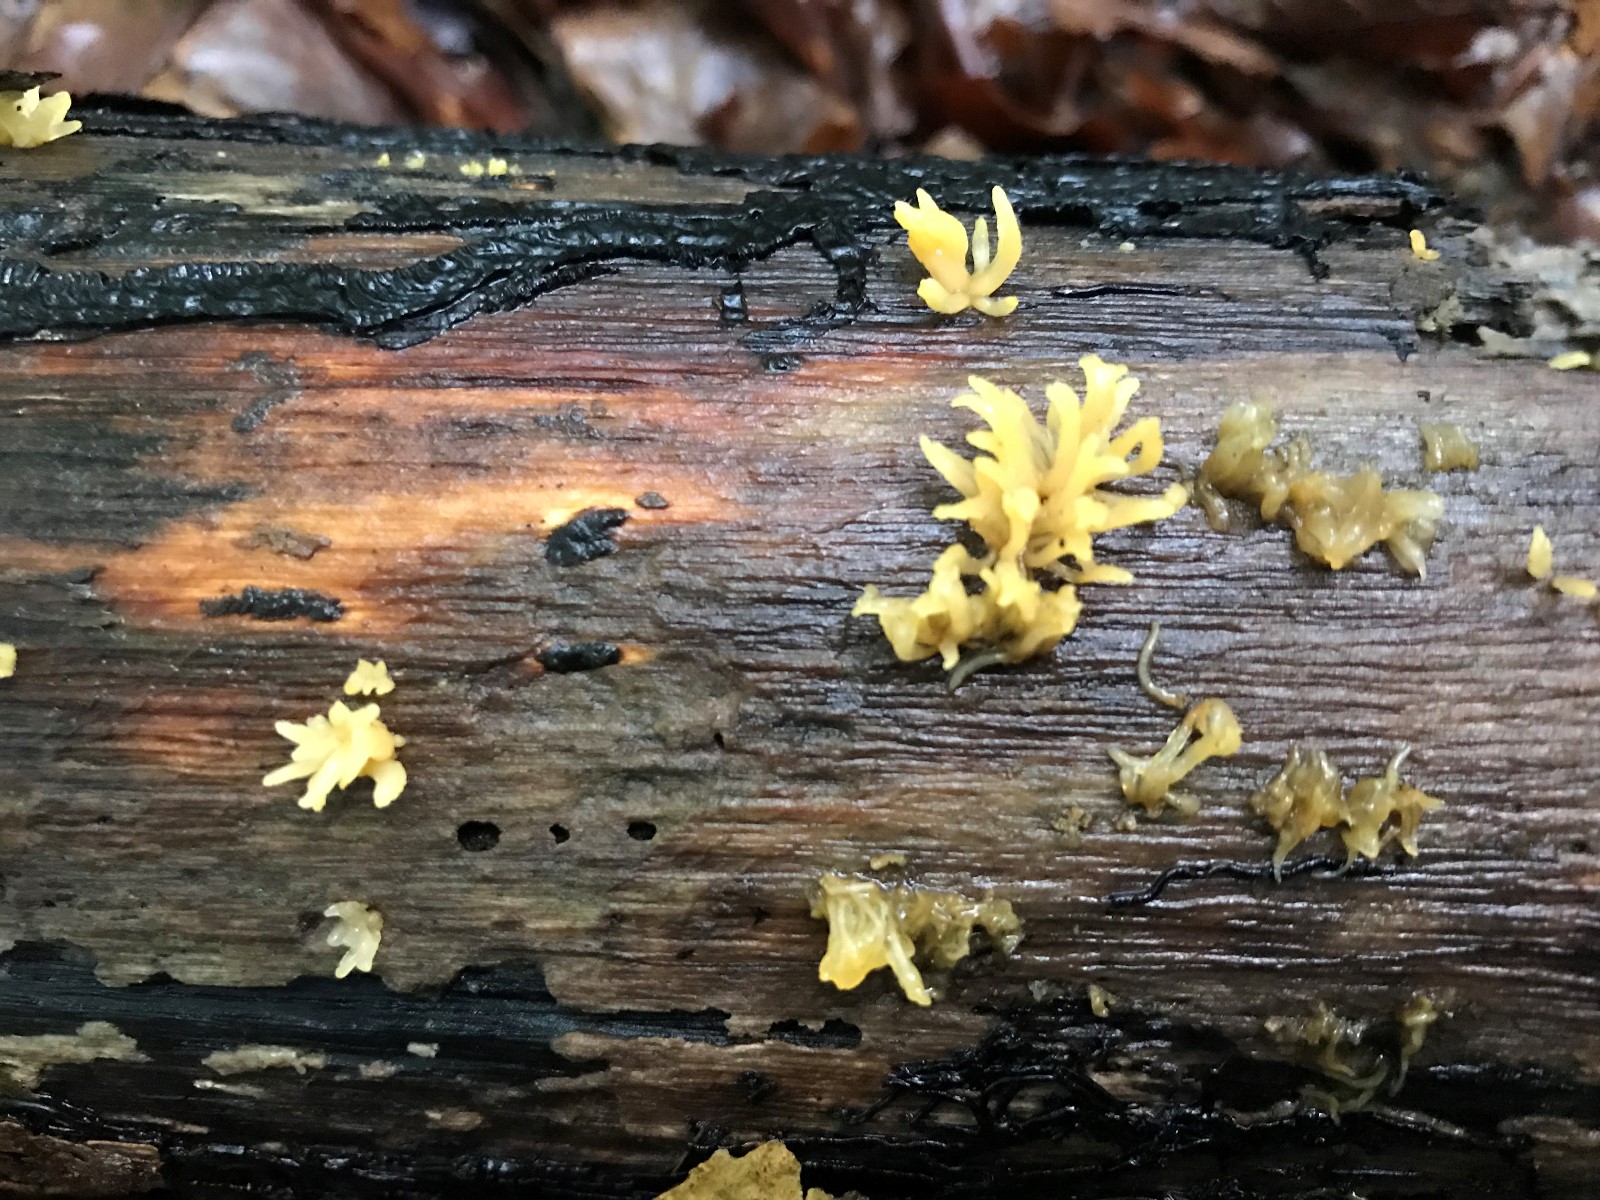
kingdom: Fungi
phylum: Basidiomycota
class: Dacrymycetes
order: Dacrymycetales
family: Dacrymycetaceae
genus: Calocera
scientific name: Calocera cornea
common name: liden guldgaffel
